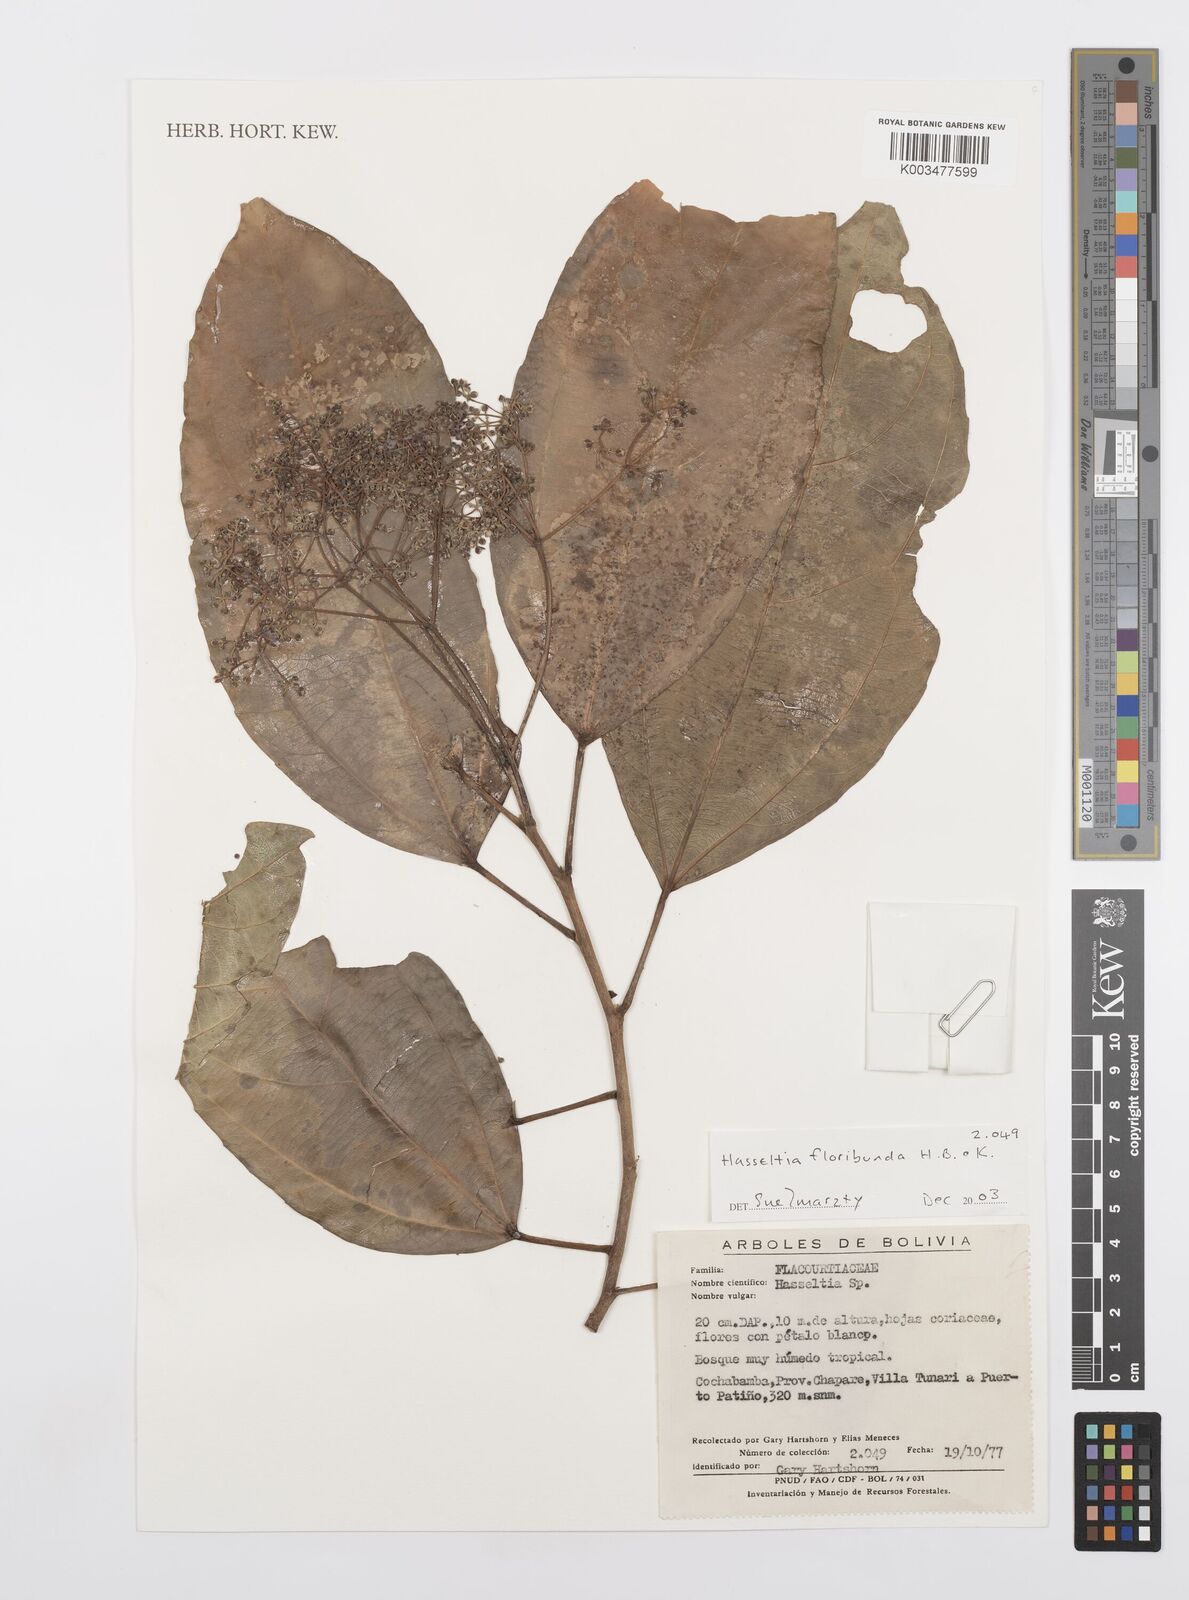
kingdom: Plantae
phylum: Tracheophyta
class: Magnoliopsida
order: Malpighiales
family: Salicaceae
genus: Hasseltia
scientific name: Hasseltia floribunda
